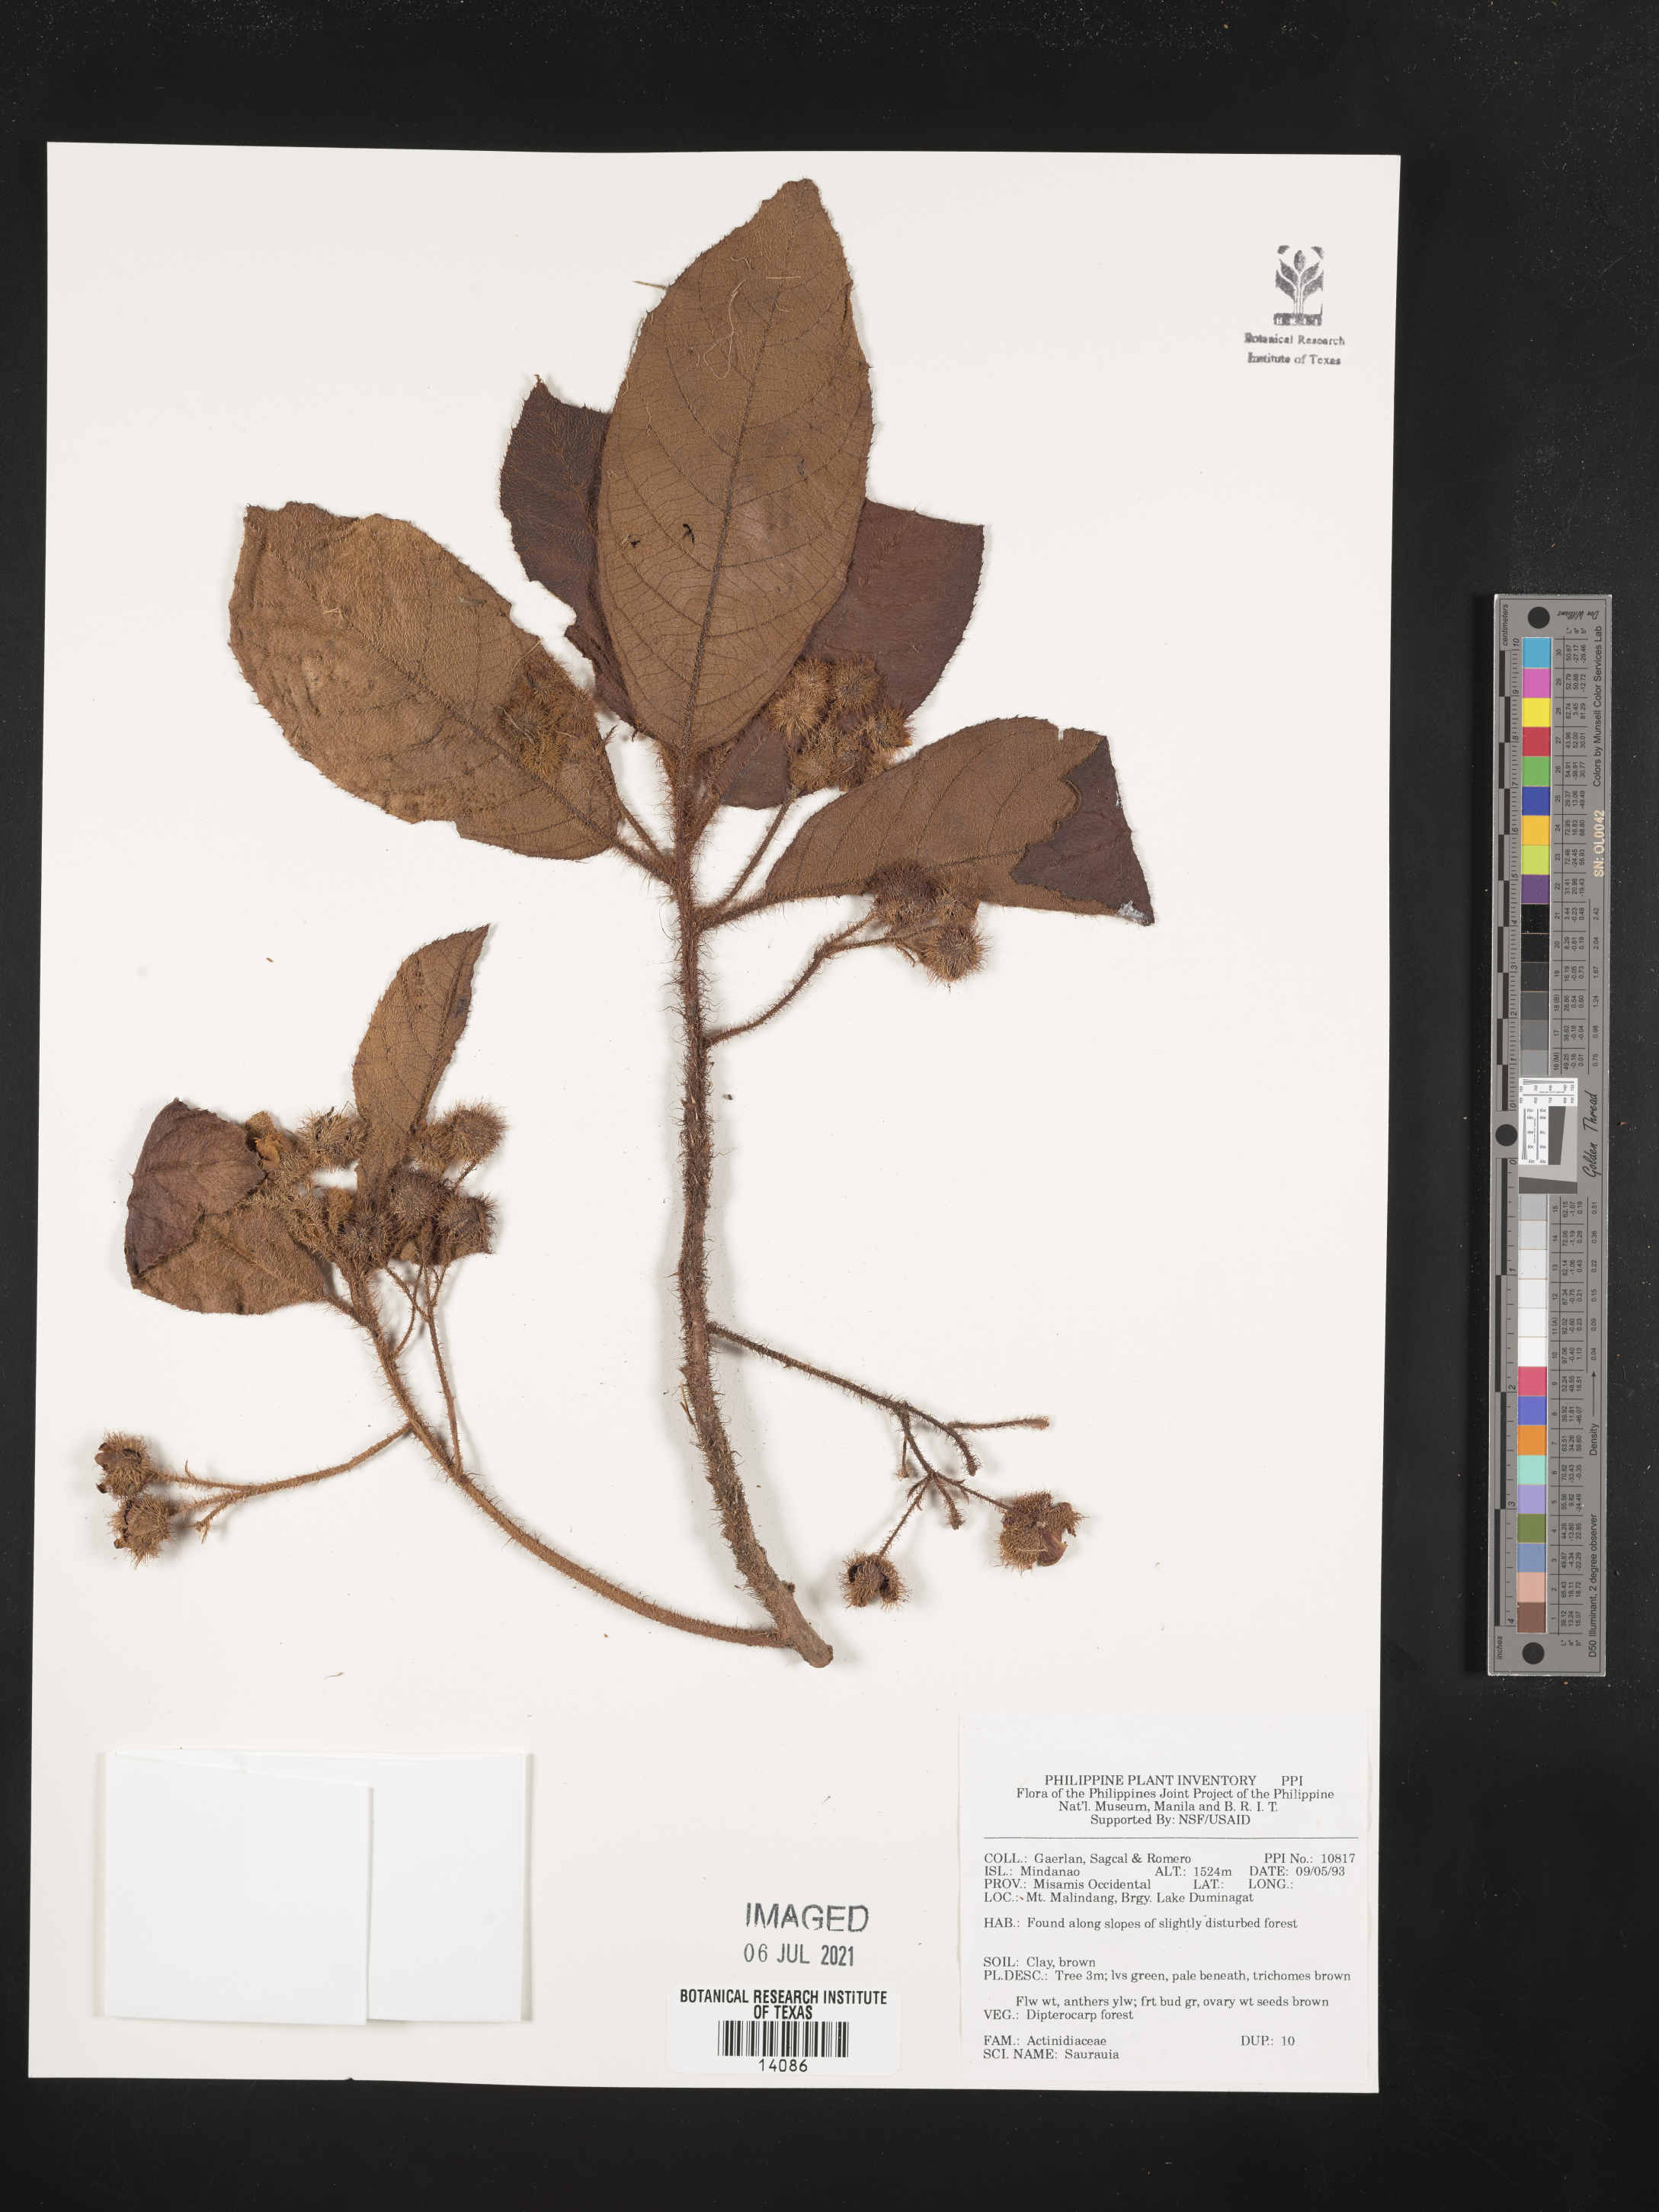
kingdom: Plantae
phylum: Tracheophyta
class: Magnoliopsida
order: Ericales
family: Actinidiaceae
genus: Saurauia
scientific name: Saurauia
